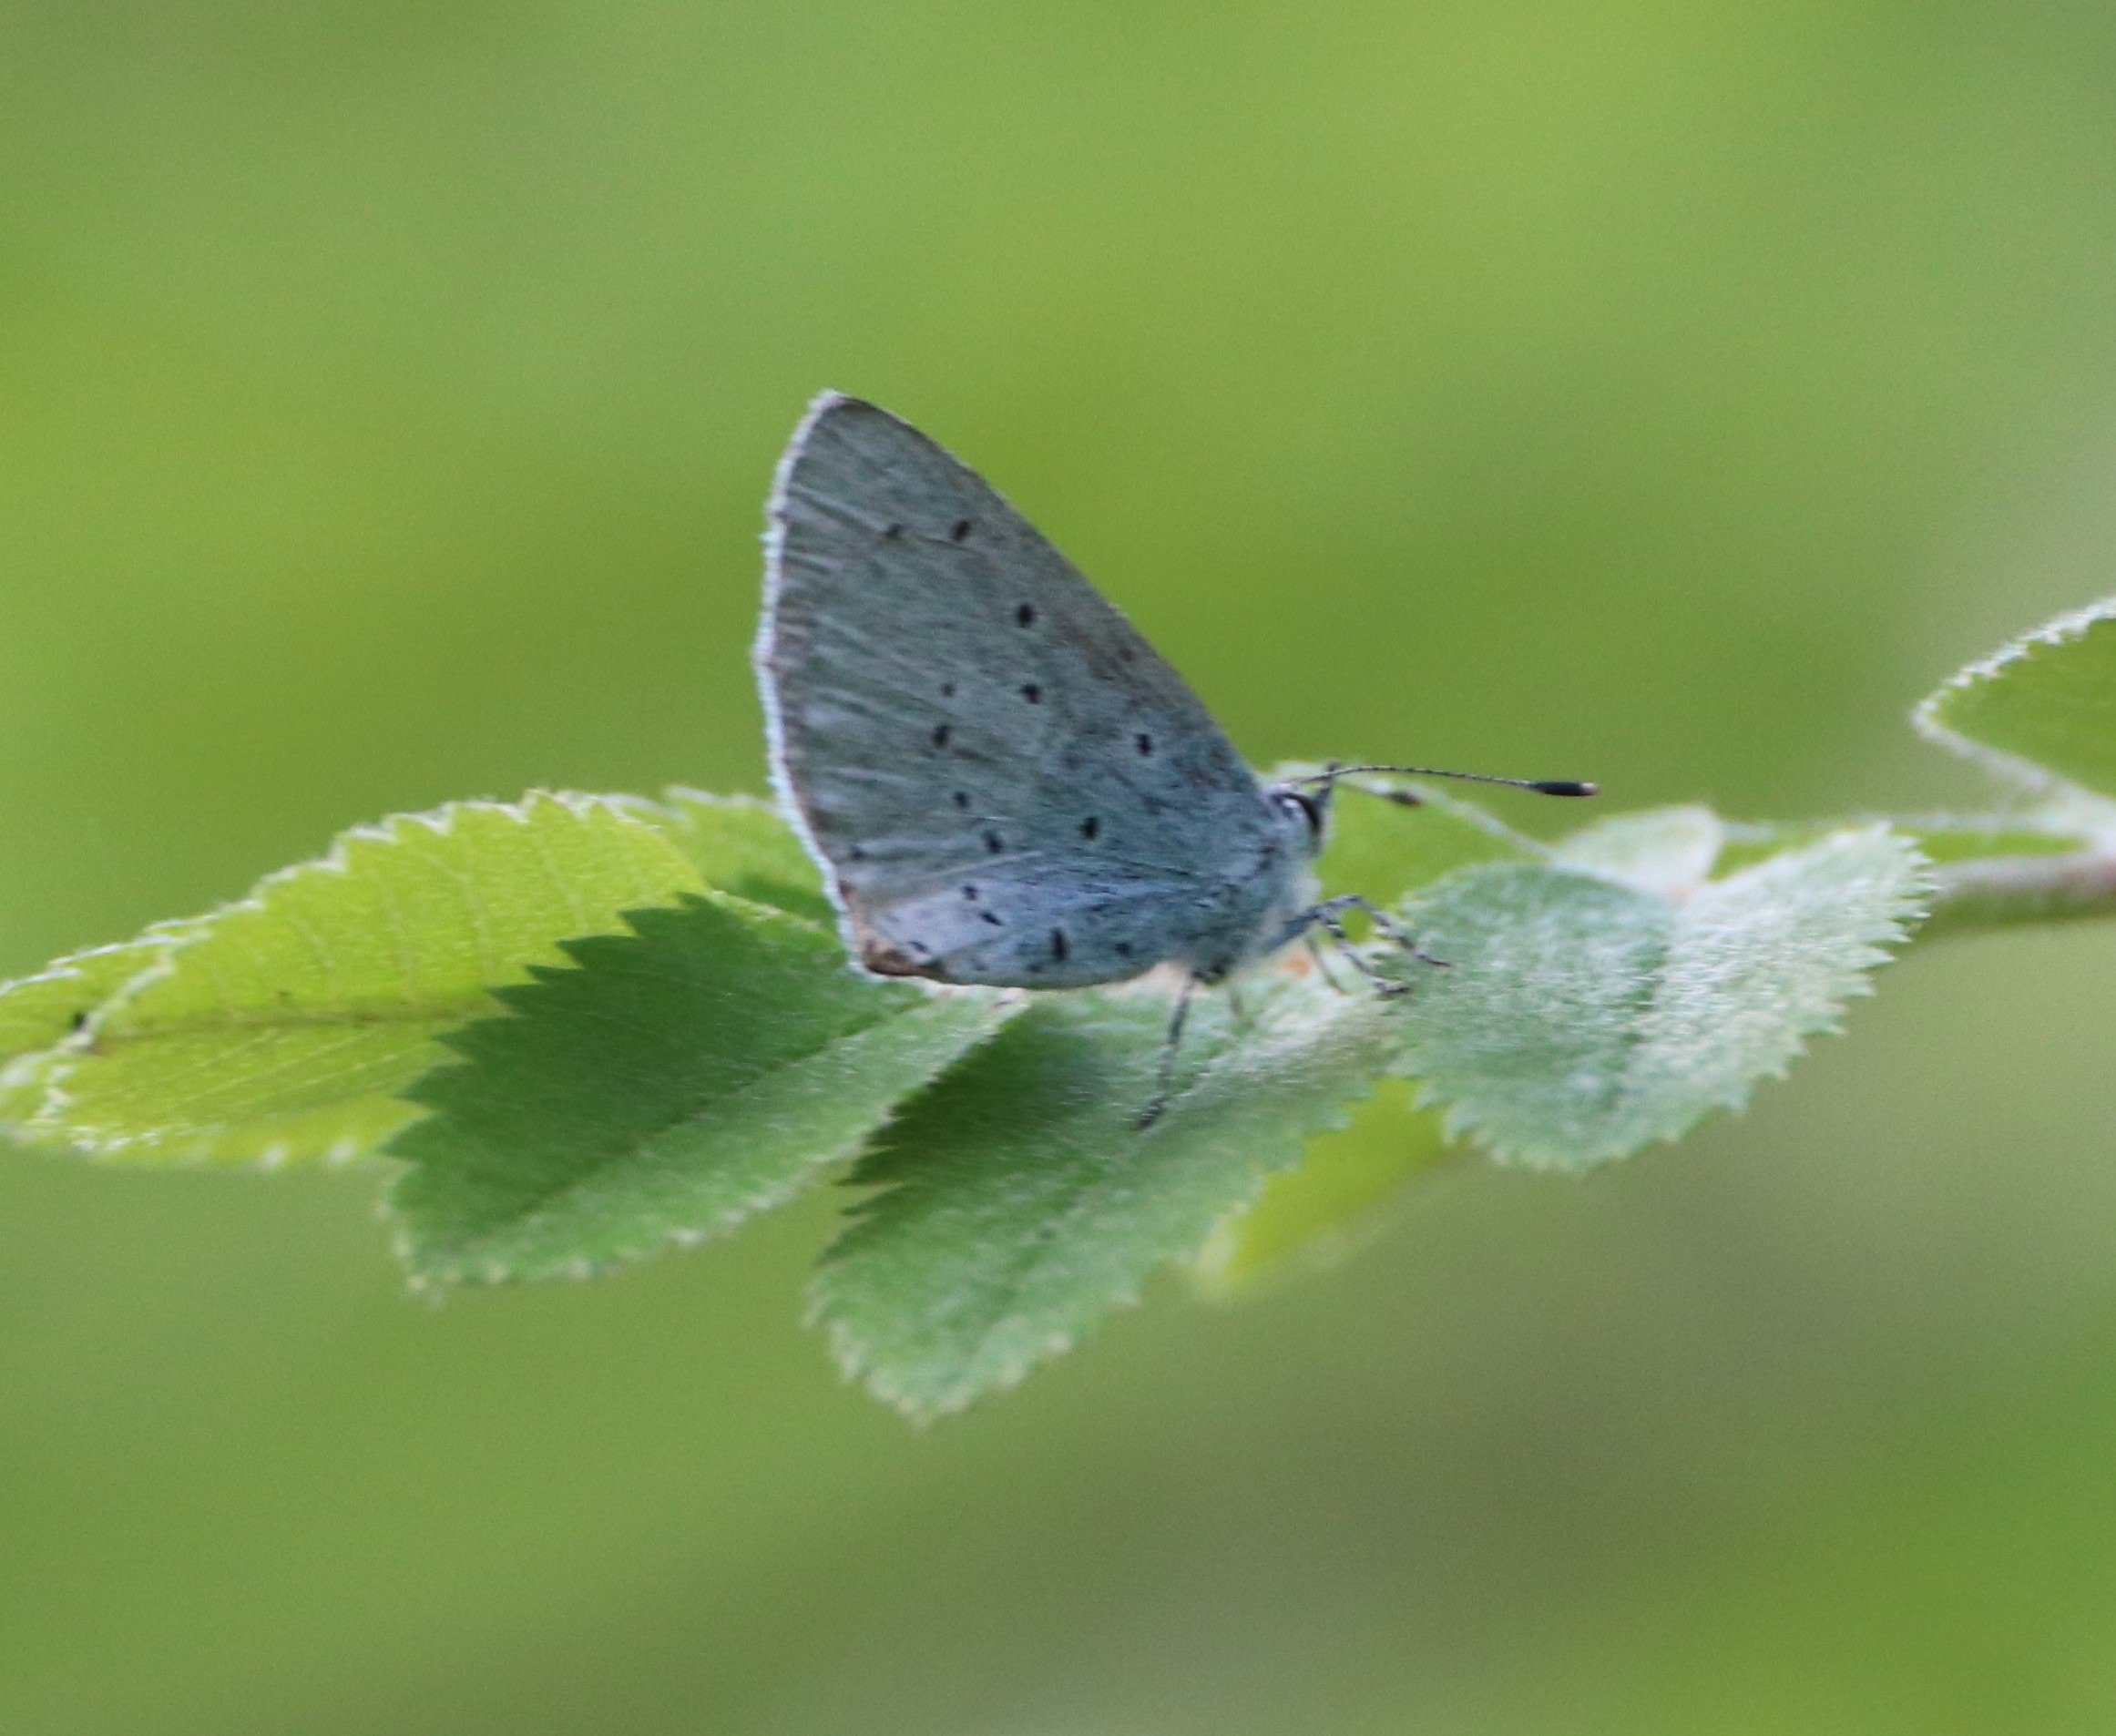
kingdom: Animalia
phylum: Arthropoda
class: Insecta
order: Lepidoptera
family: Lycaenidae
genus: Celastrina
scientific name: Celastrina argiolus
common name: Skovblåfugl
